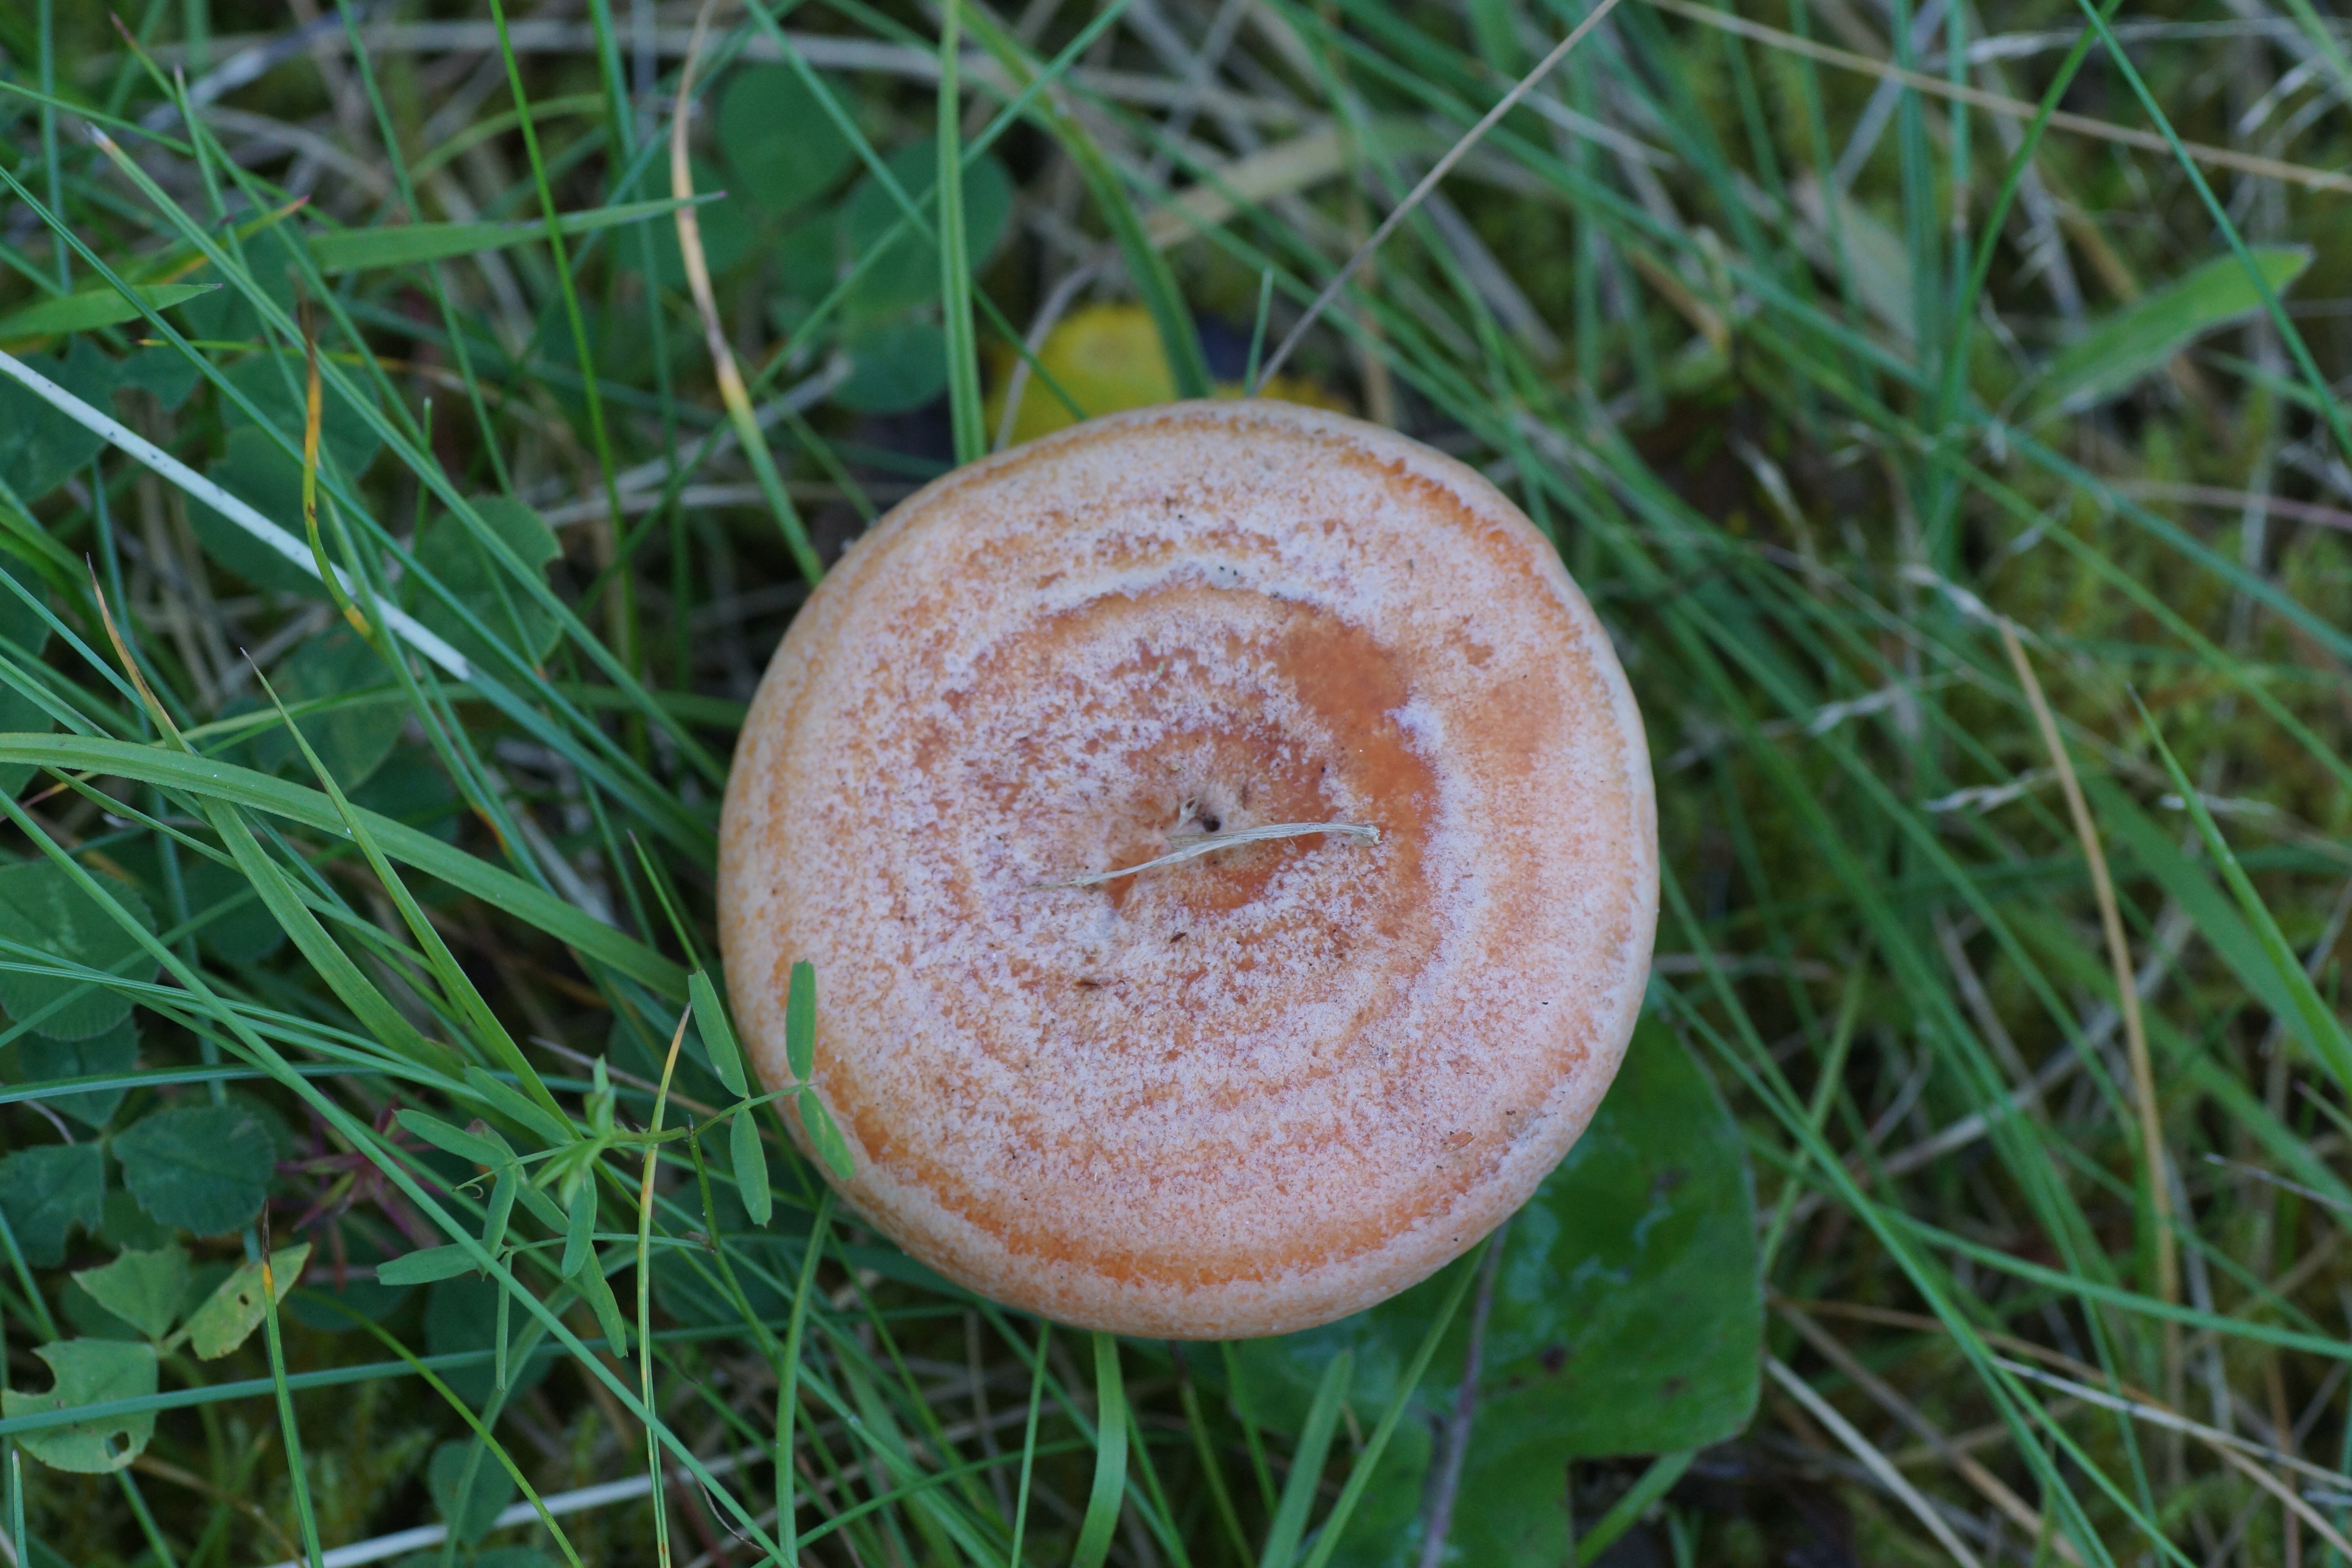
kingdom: Fungi
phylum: Basidiomycota
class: Agaricomycetes
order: Russulales
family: Russulaceae
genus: Lactarius
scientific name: Lactarius deliciosus
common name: velsmagende mælkehat
